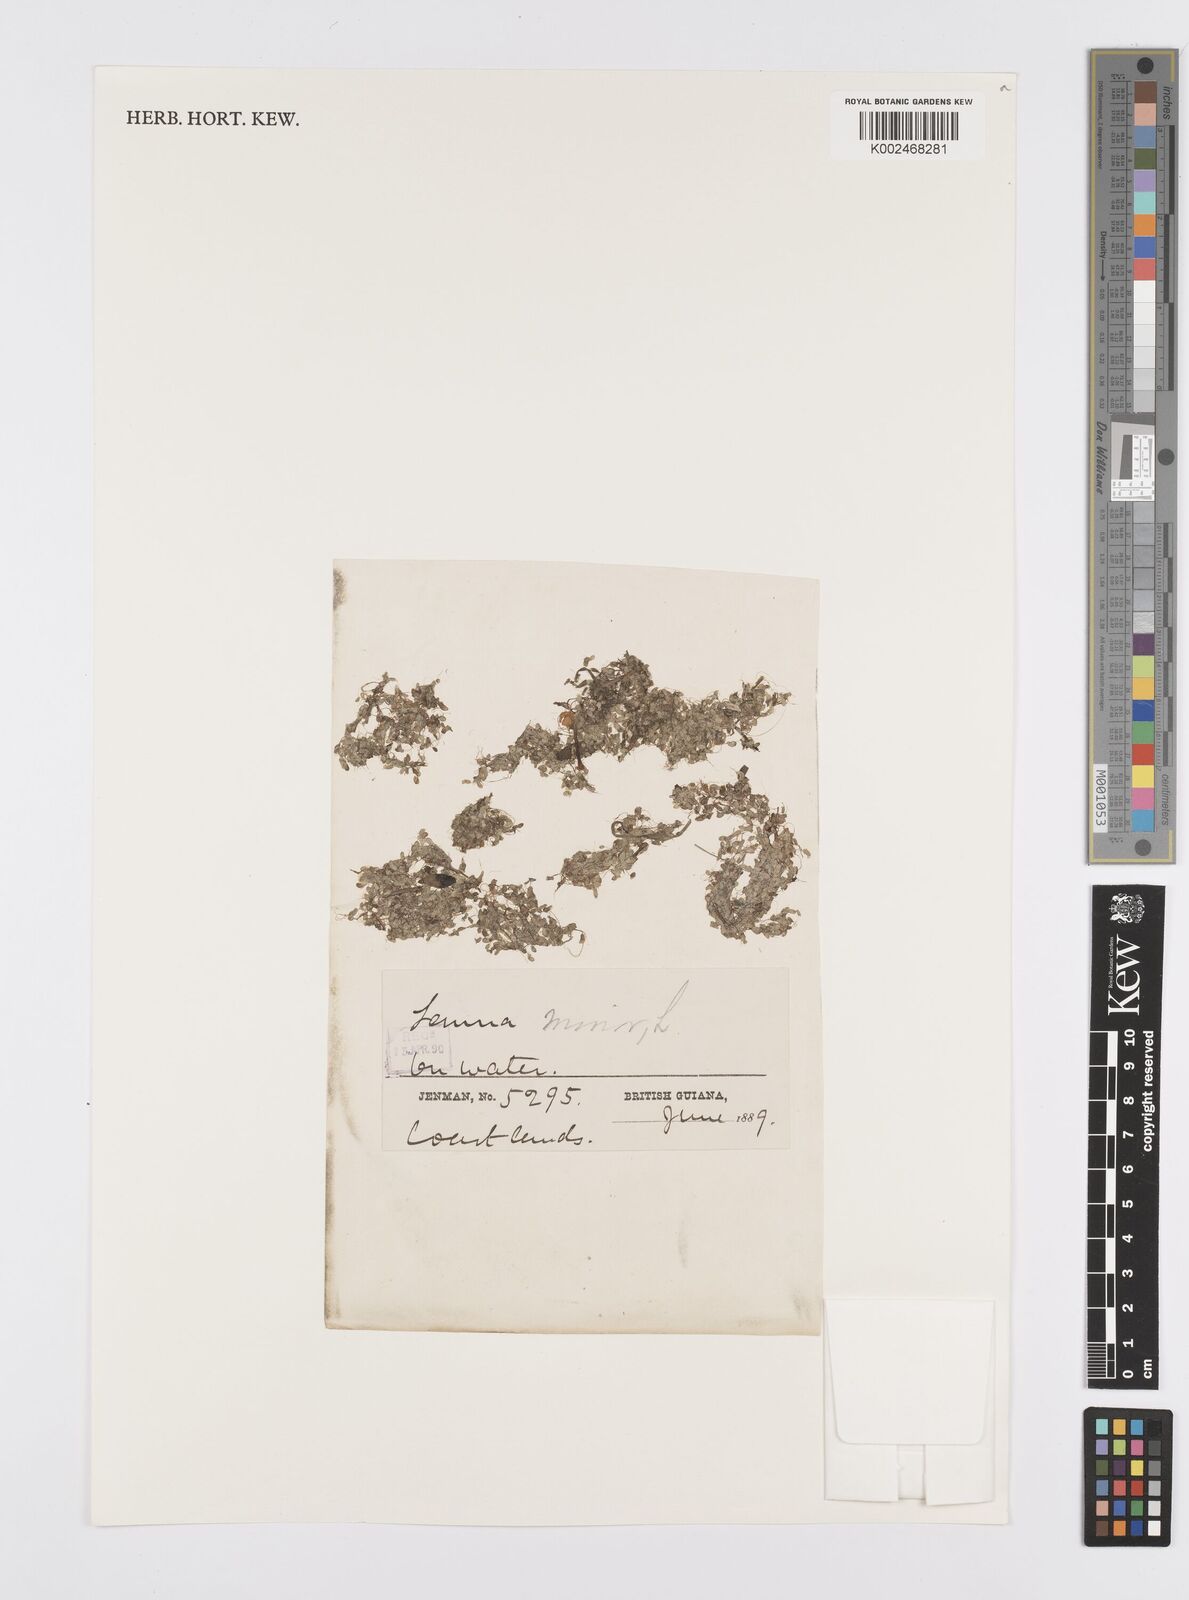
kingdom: Plantae
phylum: Tracheophyta
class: Liliopsida
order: Alismatales
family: Araceae
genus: Lemna
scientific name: Lemna minor
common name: Common duckweed
